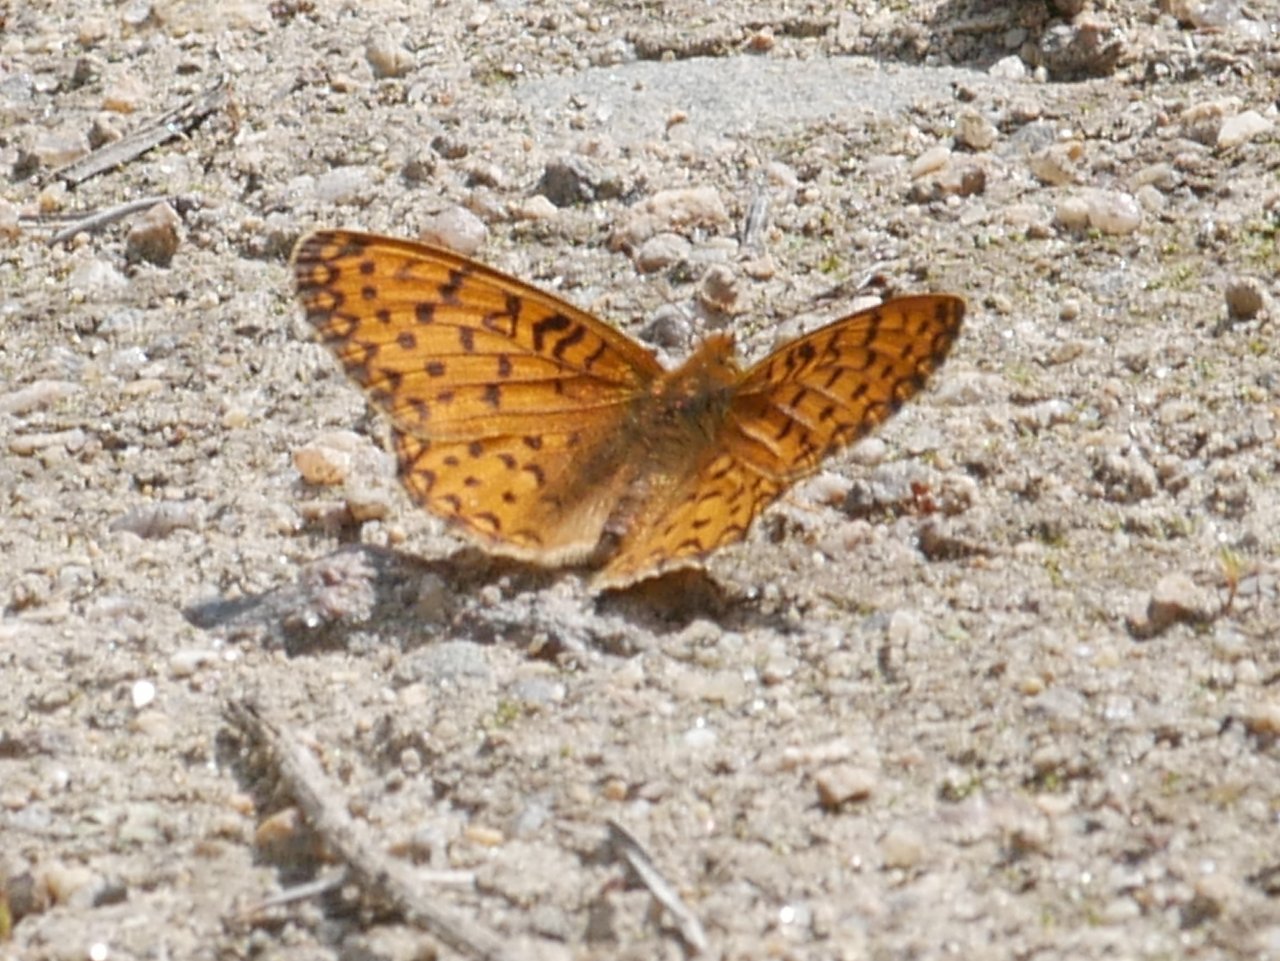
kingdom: Animalia
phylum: Arthropoda
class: Insecta
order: Lepidoptera
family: Nymphalidae
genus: Speyeria
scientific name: Speyeria mormonia
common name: Mormon Fritillary
